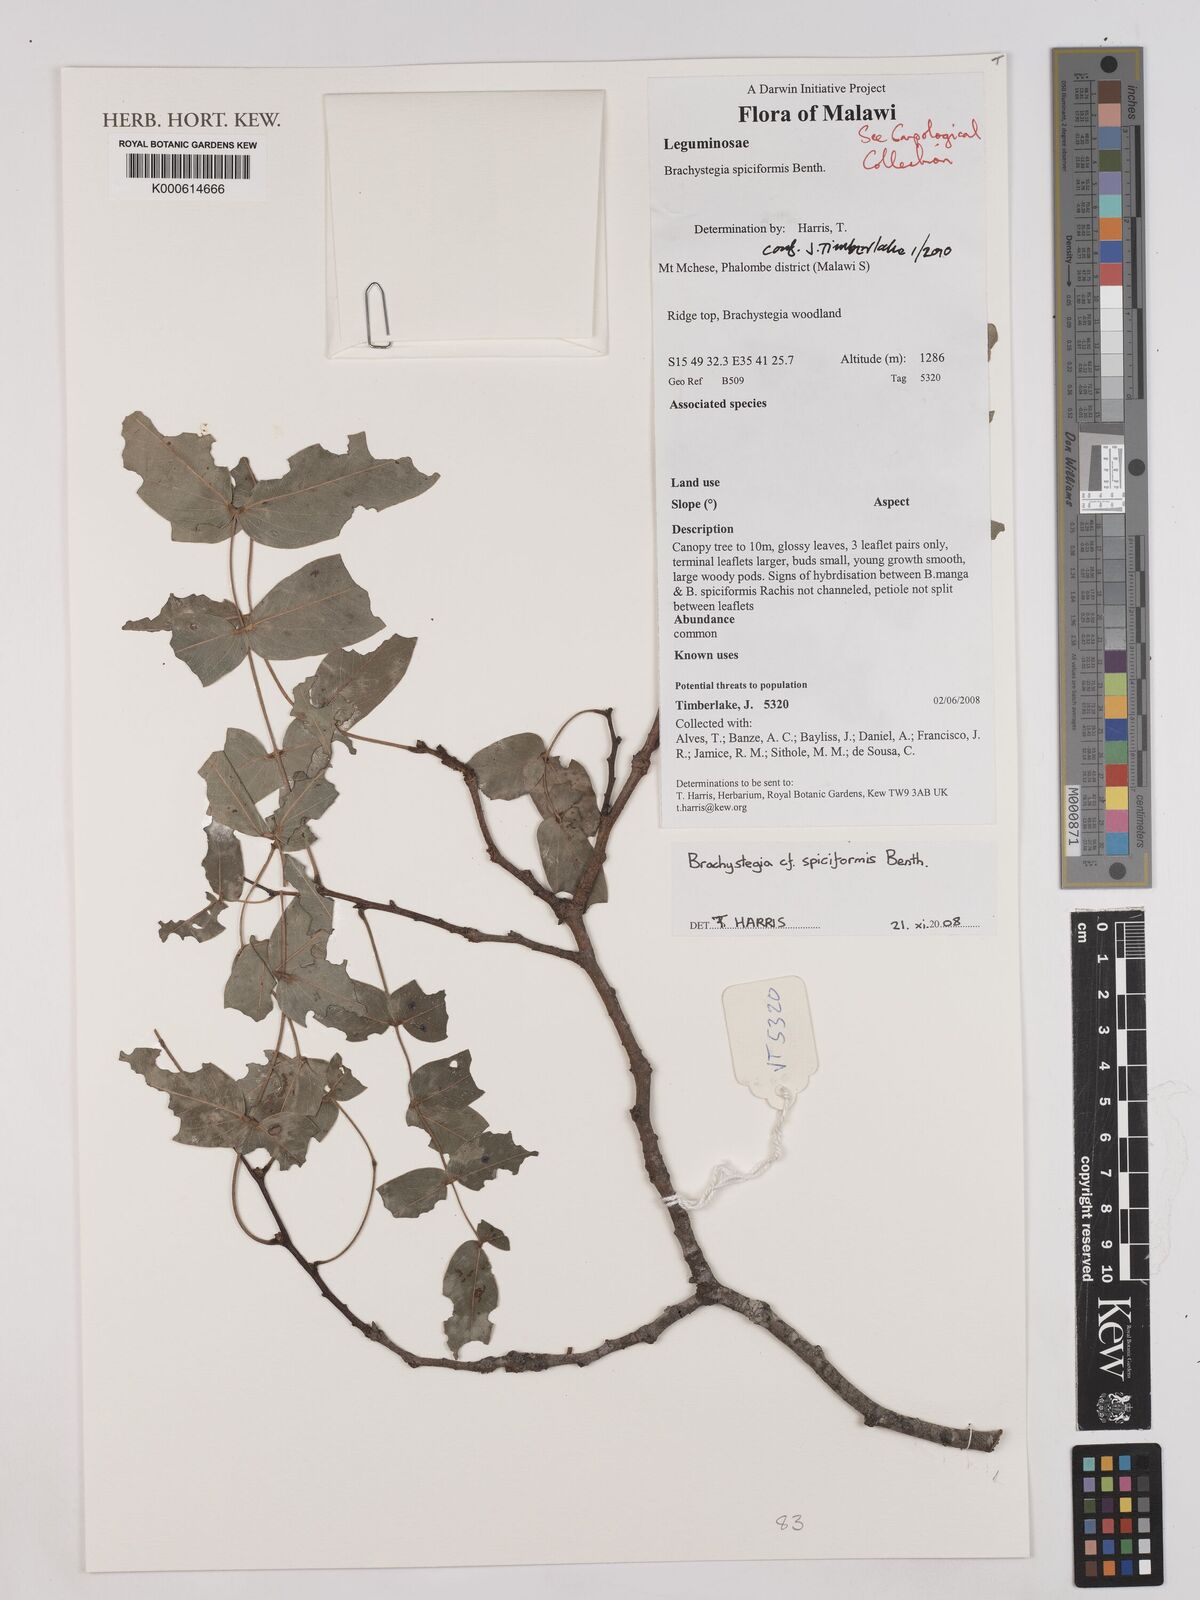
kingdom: Plantae
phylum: Tracheophyta
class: Magnoliopsida
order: Fabales
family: Fabaceae
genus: Brachystegia
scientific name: Brachystegia spiciformis
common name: Zebrawood
